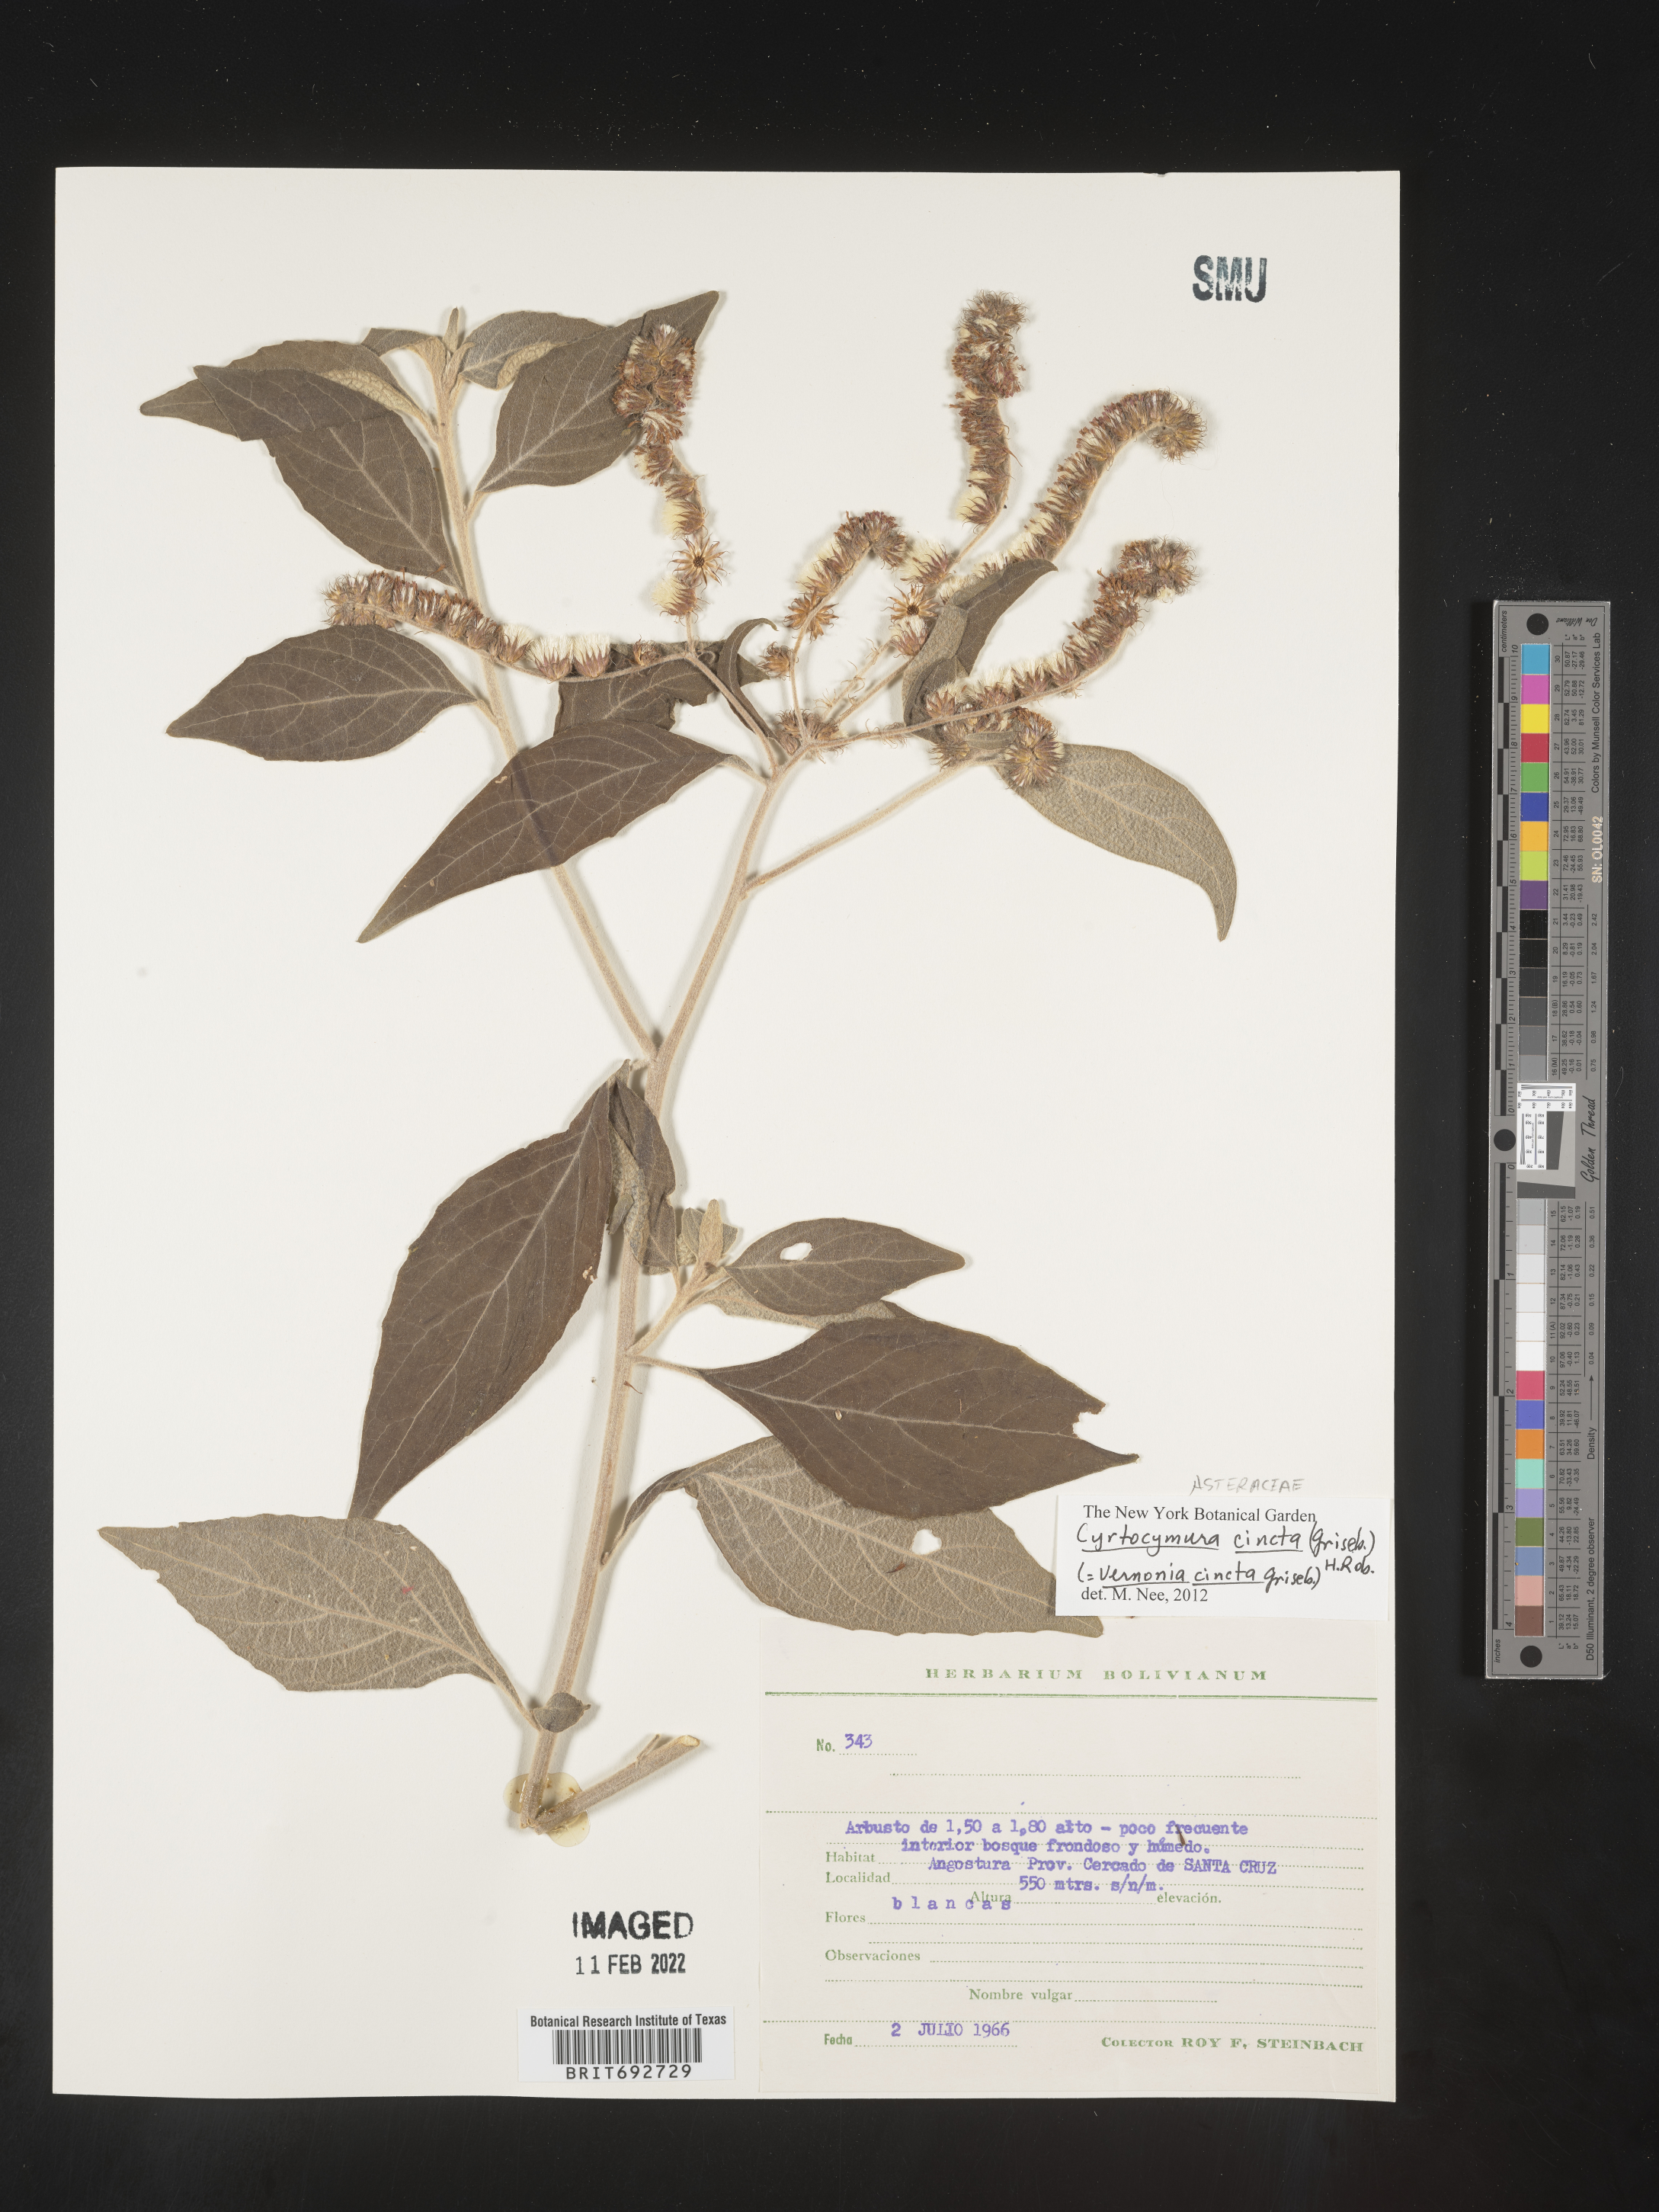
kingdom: Plantae
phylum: Tracheophyta
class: Magnoliopsida
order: Asterales
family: Asteraceae
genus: Cyrtocymura
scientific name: Cyrtocymura
